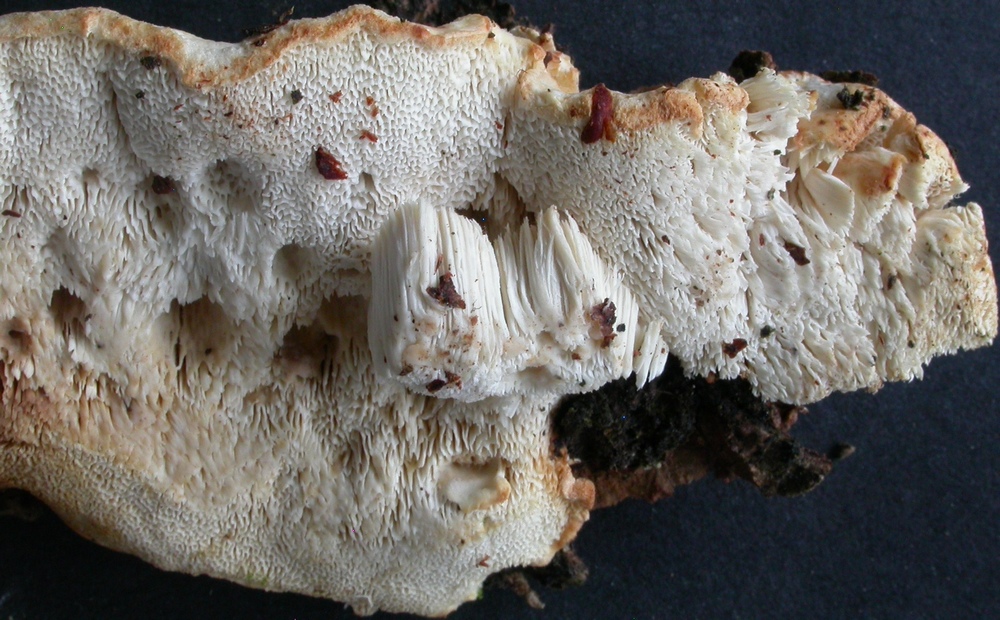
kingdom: Fungi
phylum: Basidiomycota
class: Agaricomycetes
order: Polyporales
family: Incrustoporiaceae
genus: Skeletocutis
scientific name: Skeletocutis amorpha
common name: orange krystalporesvamp
